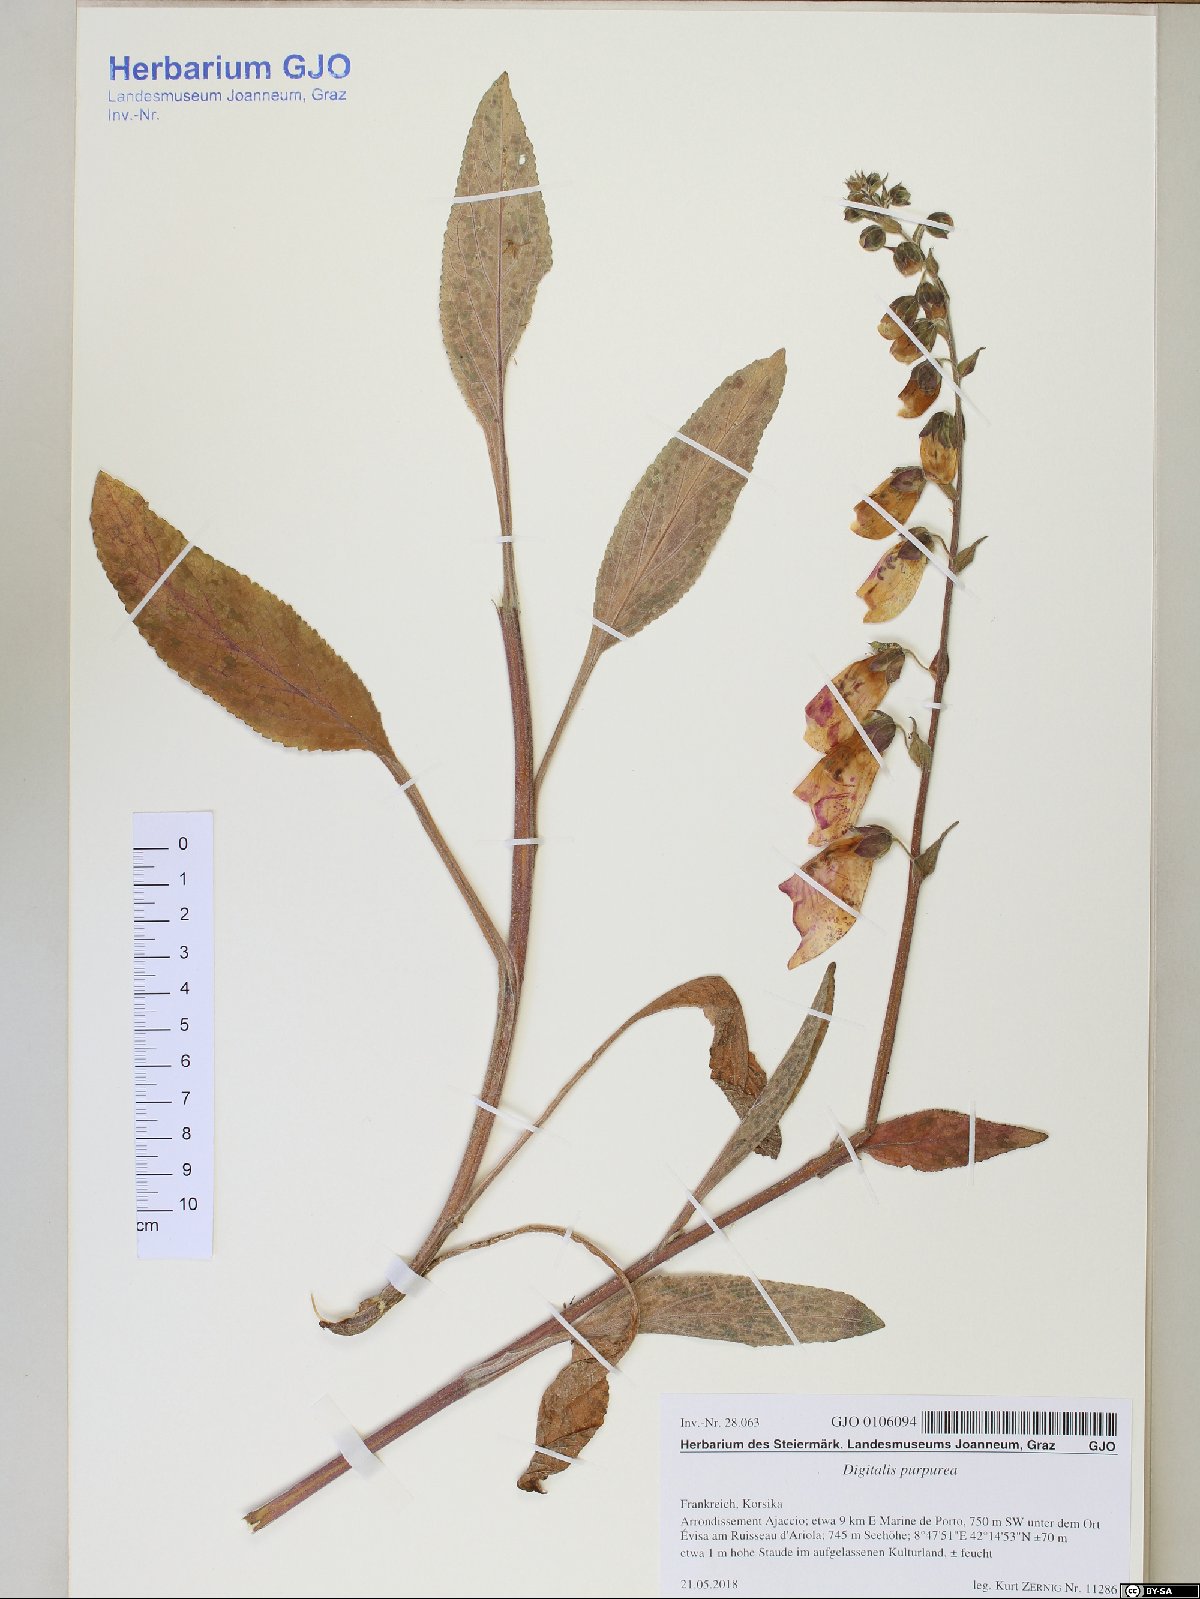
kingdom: Plantae
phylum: Tracheophyta
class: Magnoliopsida
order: Lamiales
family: Plantaginaceae
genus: Digitalis
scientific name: Digitalis purpurea
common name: Foxglove
